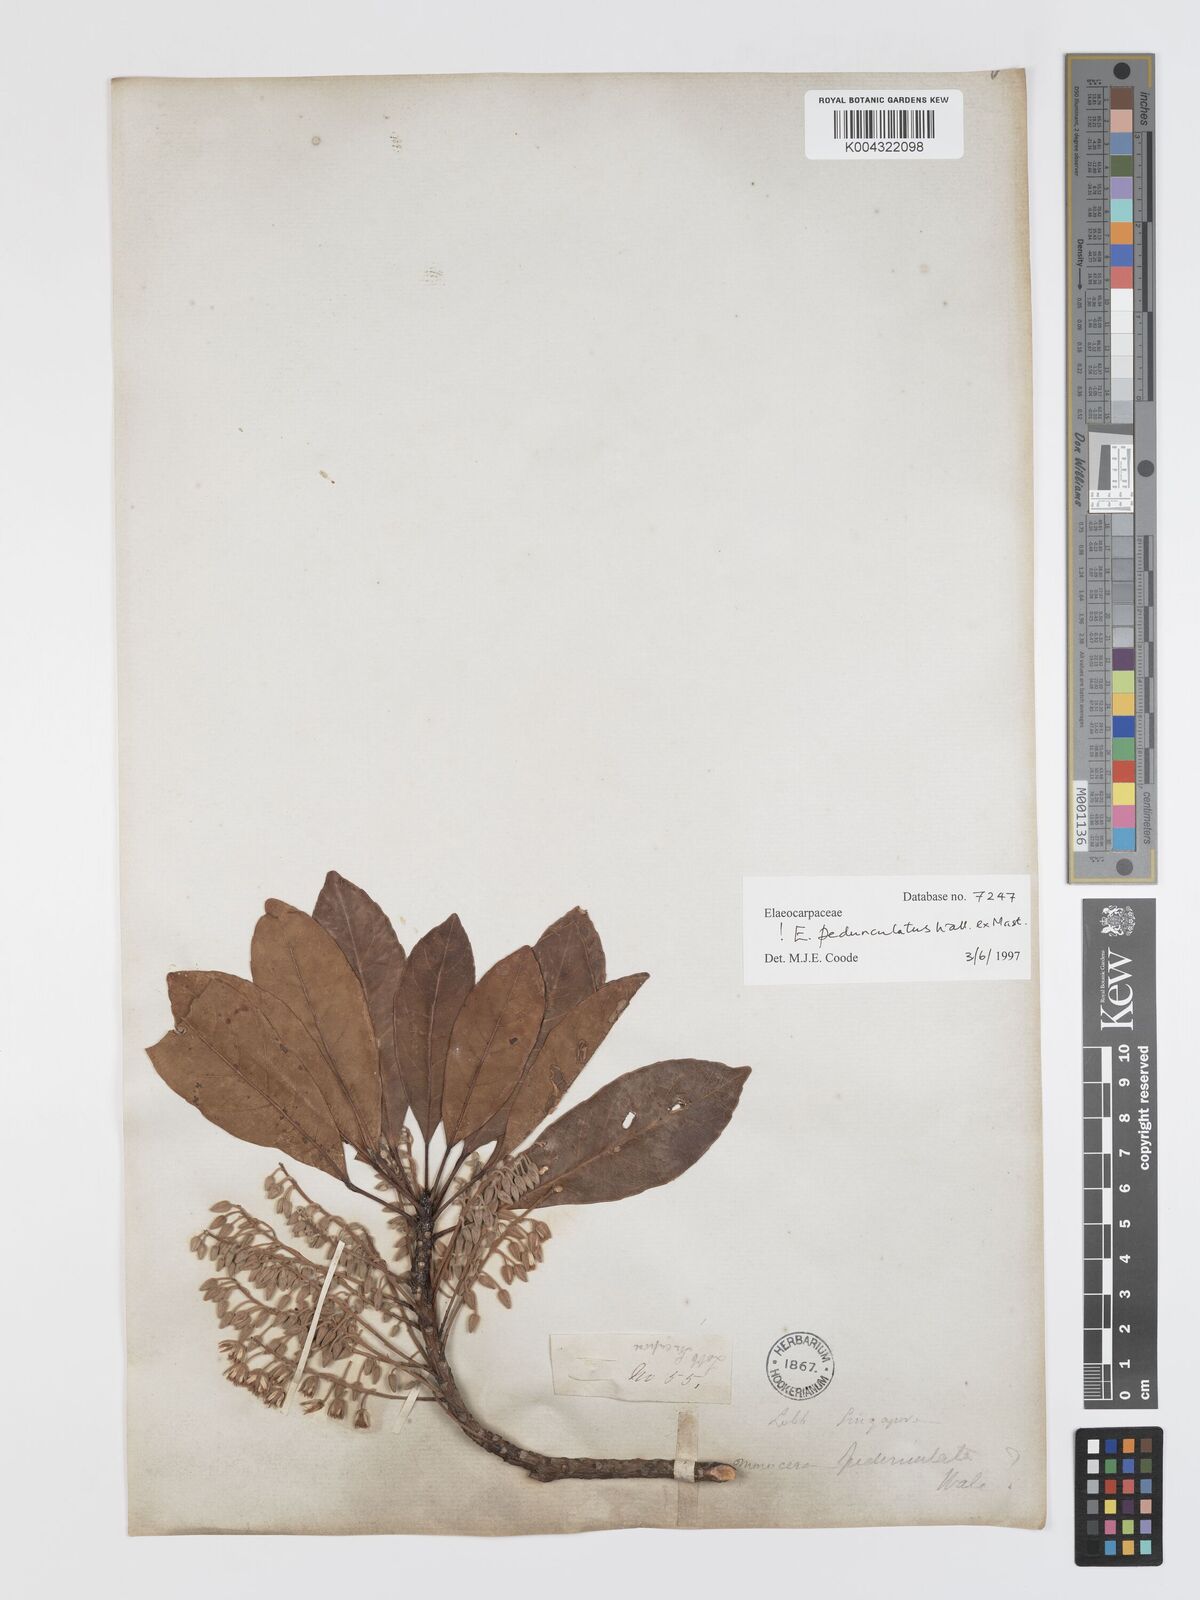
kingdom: Plantae
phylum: Tracheophyta
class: Magnoliopsida
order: Oxalidales
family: Elaeocarpaceae
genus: Elaeocarpus
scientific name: Elaeocarpus pedunculatus
